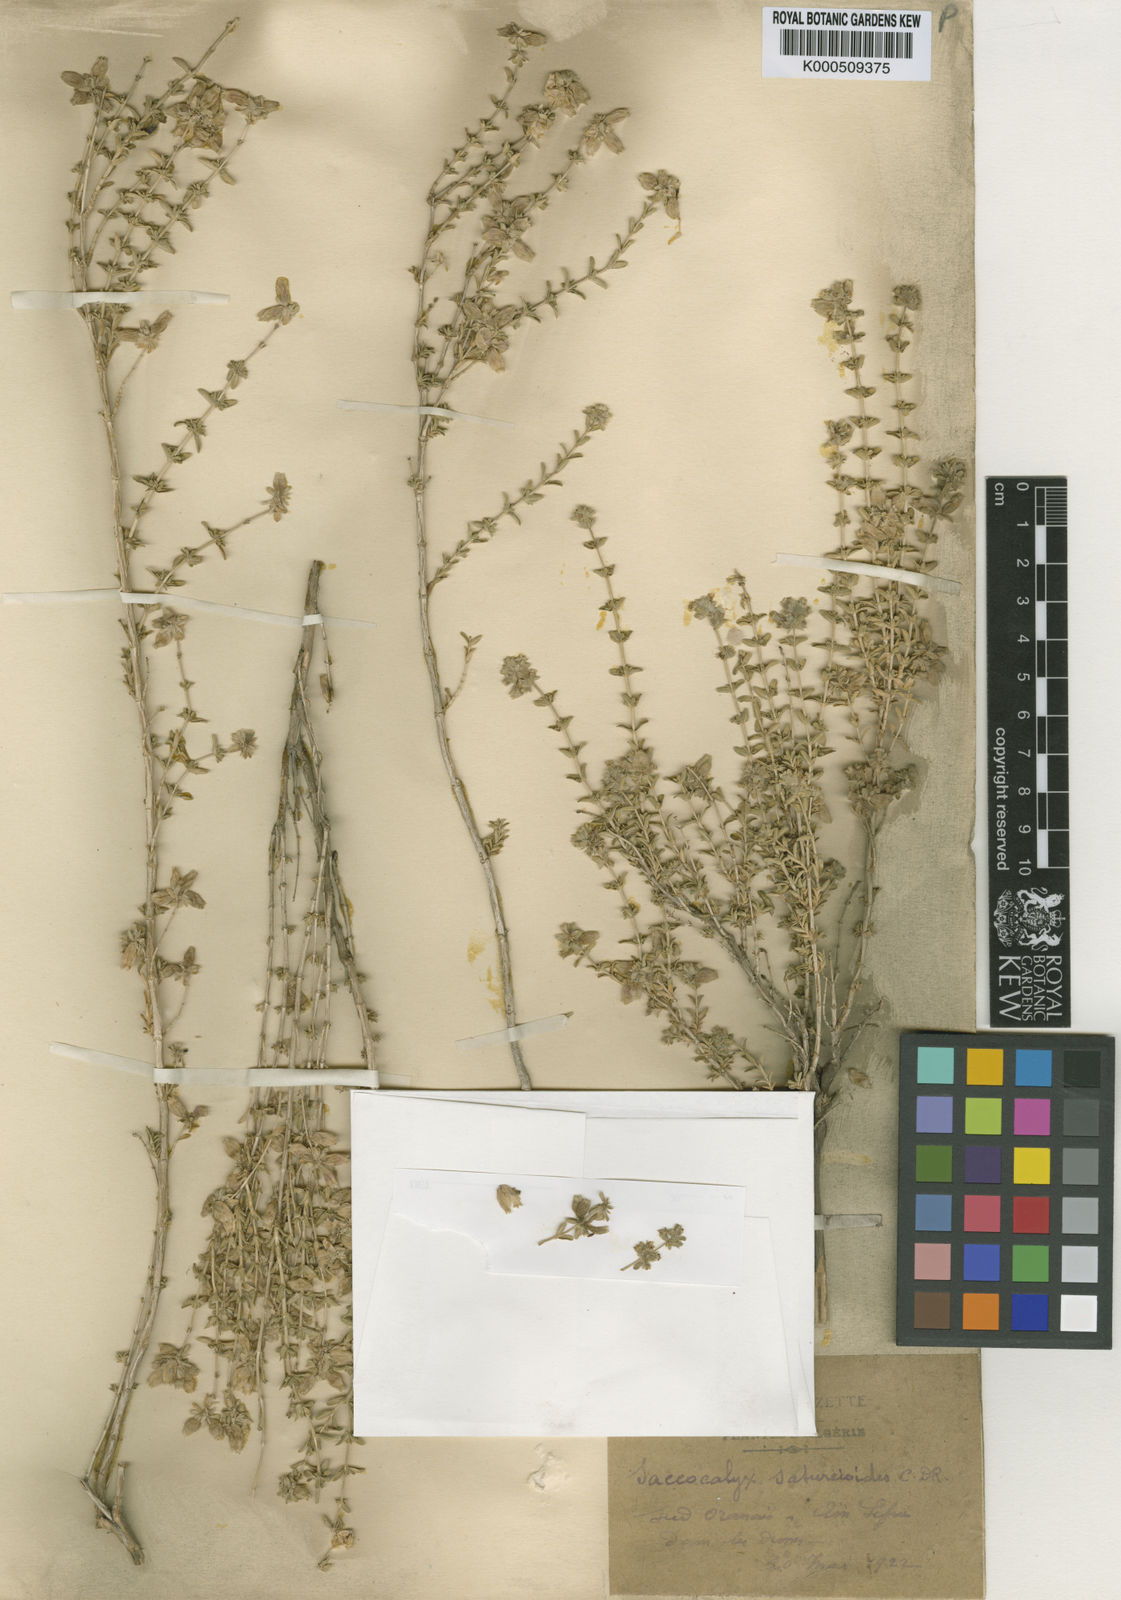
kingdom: Plantae
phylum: Tracheophyta
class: Magnoliopsida
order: Lamiales
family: Lamiaceae
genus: Saccocalyx
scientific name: Saccocalyx saturejoides
